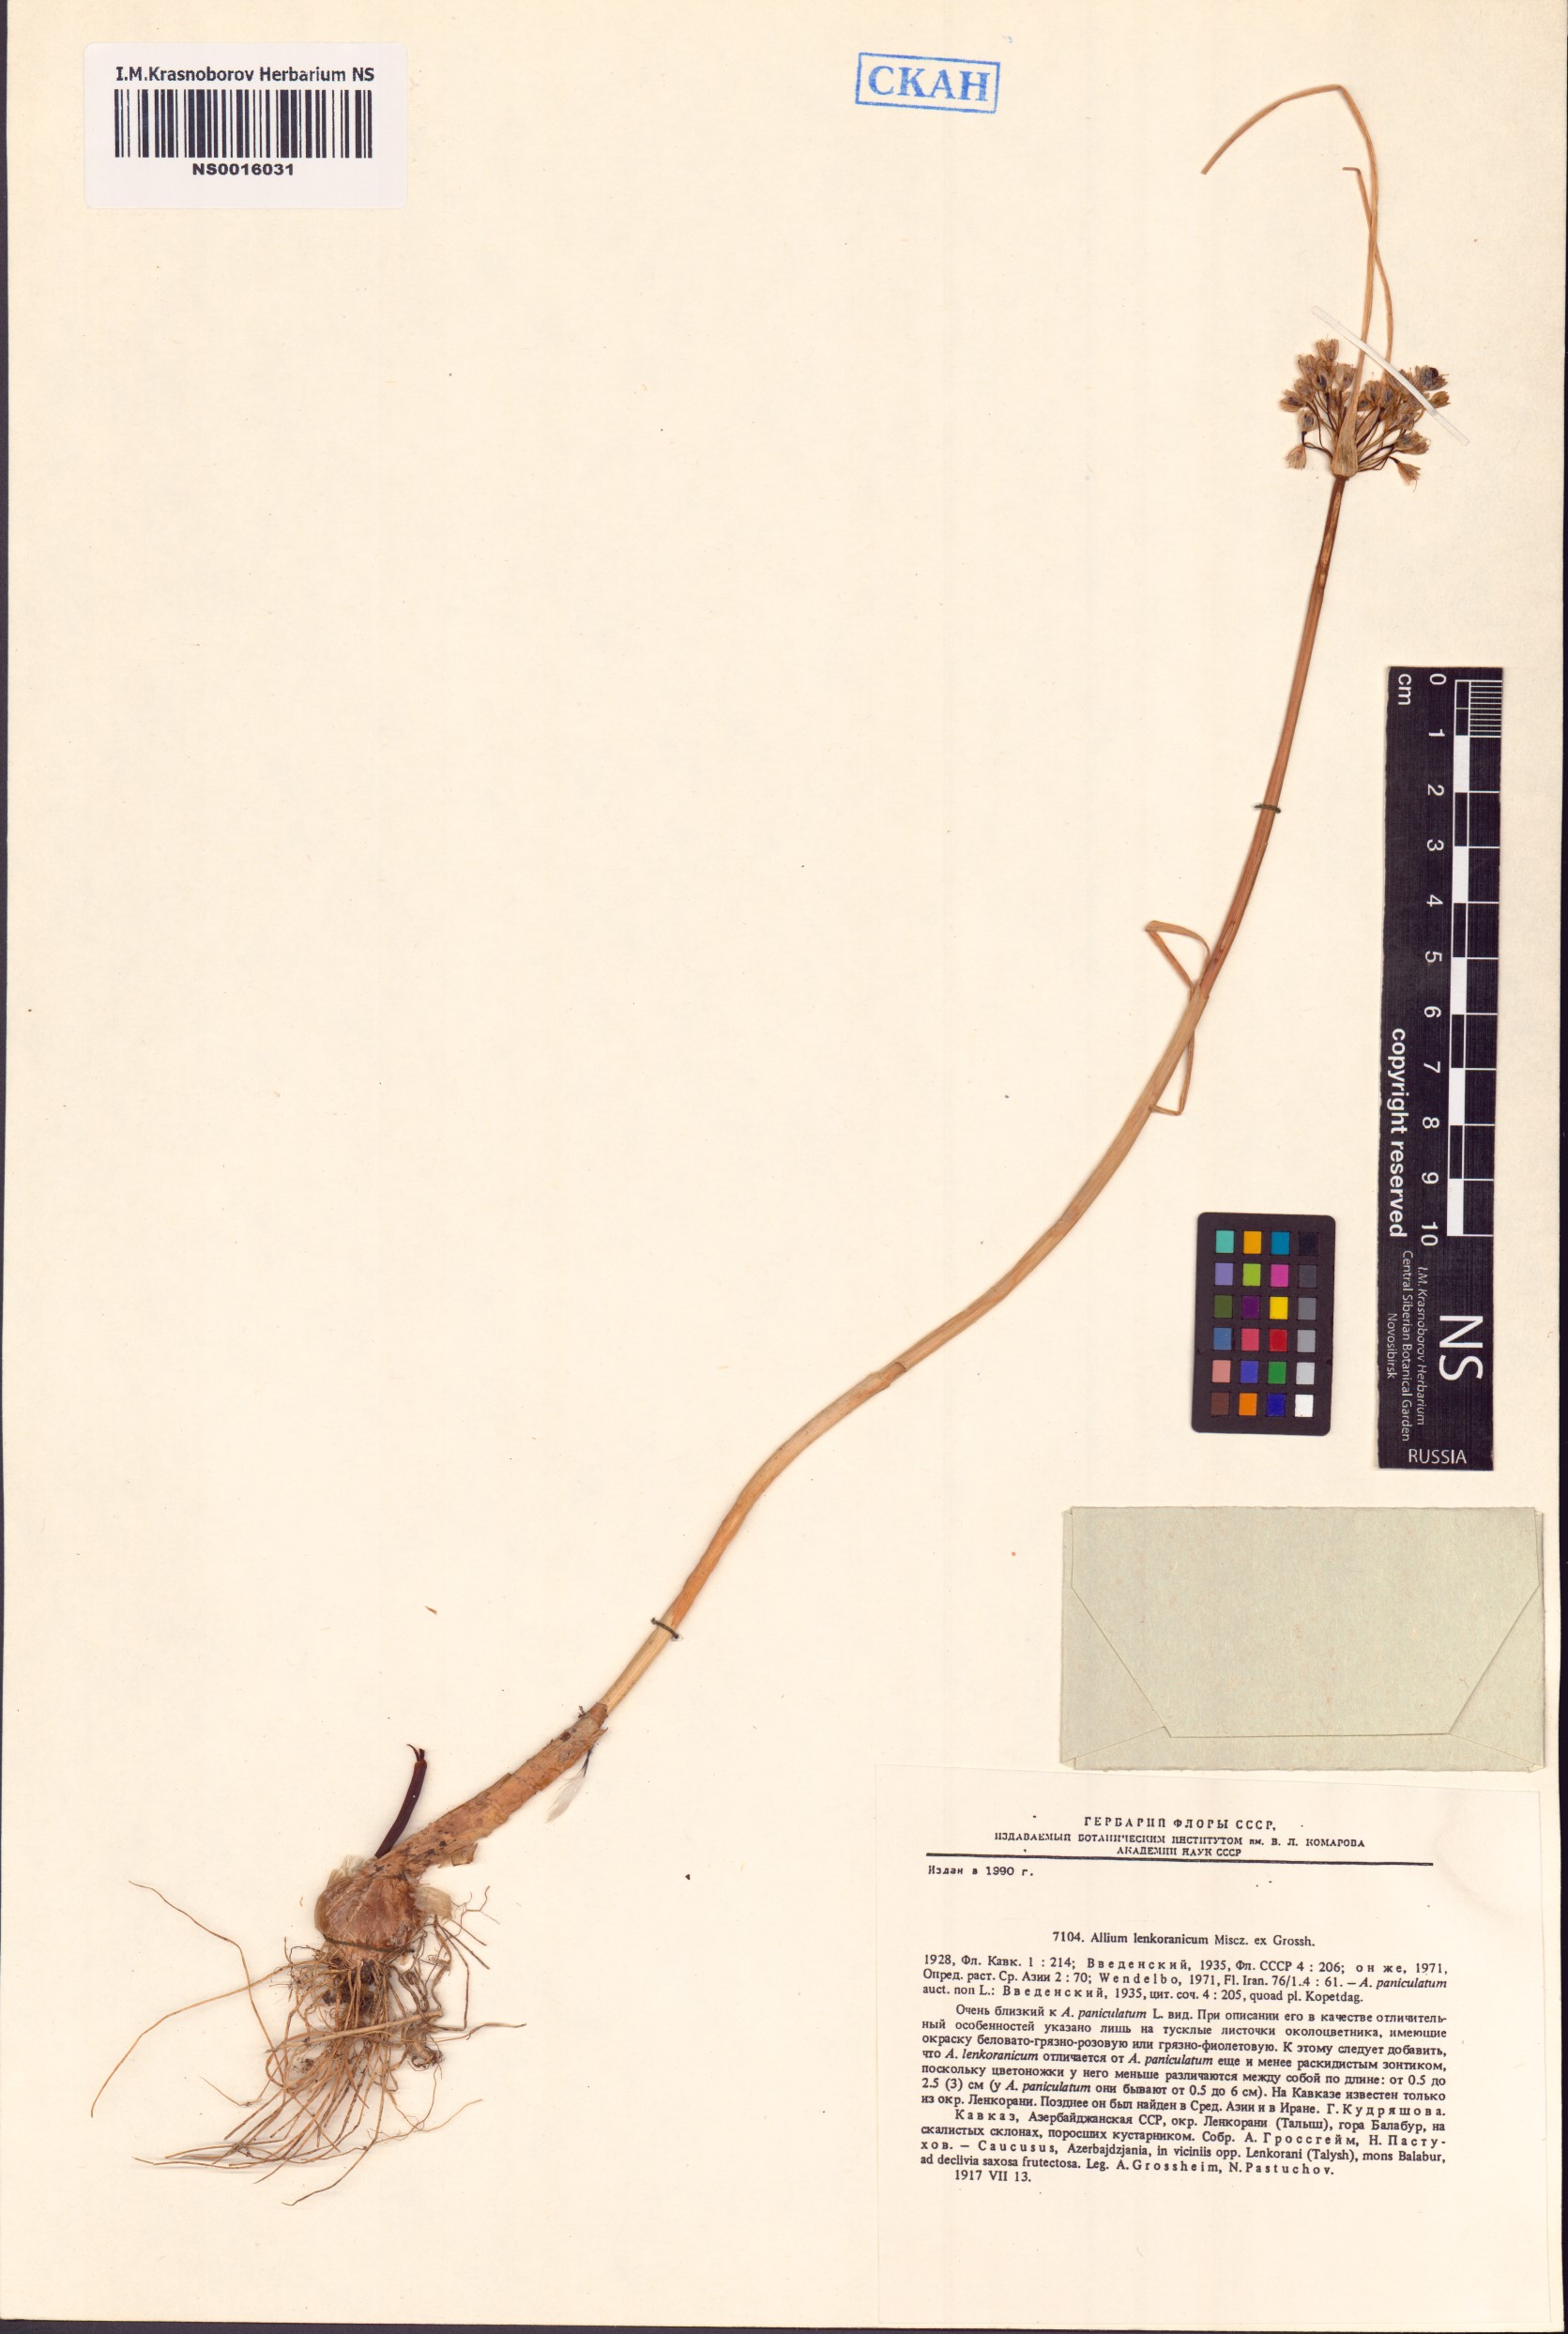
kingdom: Plantae
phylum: Tracheophyta
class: Liliopsida
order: Asparagales
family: Amaryllidaceae
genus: Allium
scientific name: Allium lenkoranicum
